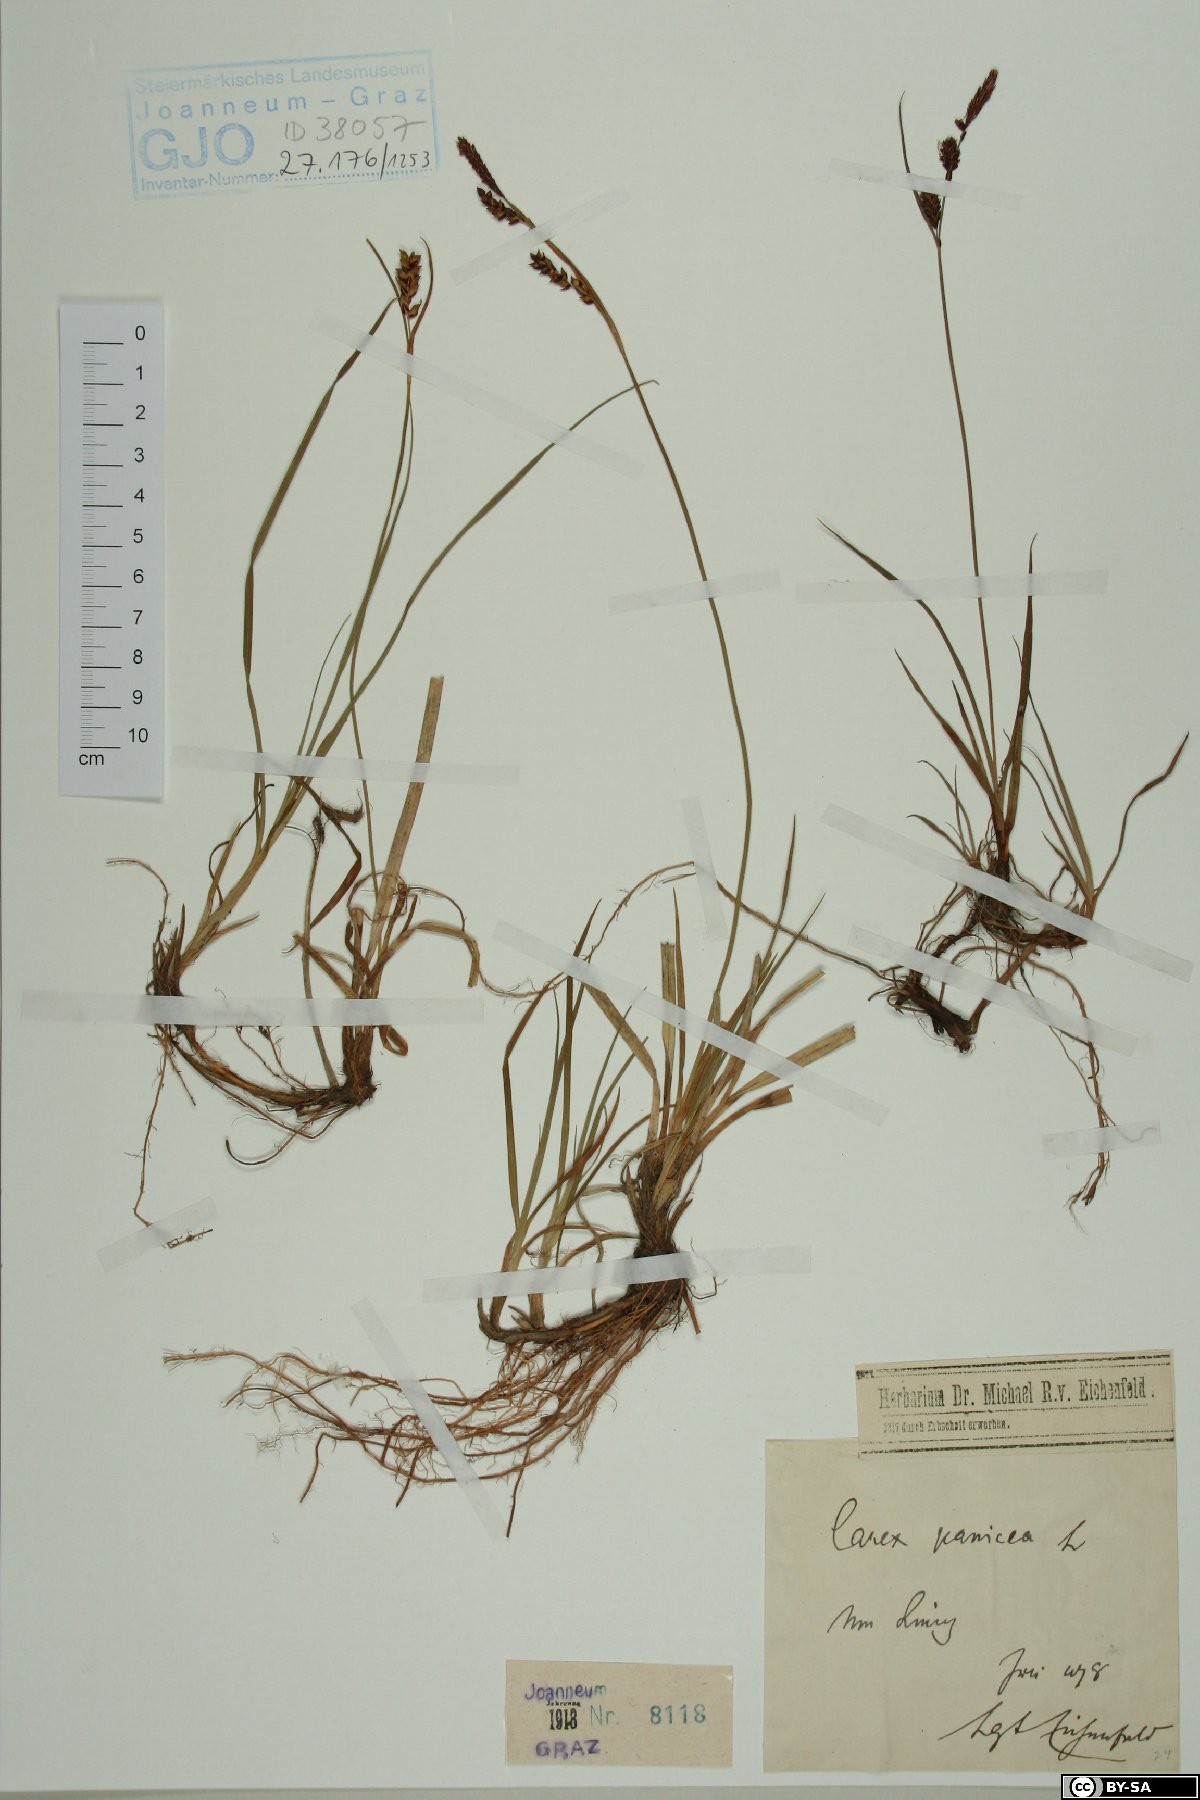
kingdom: Plantae
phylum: Tracheophyta
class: Liliopsida
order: Poales
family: Cyperaceae
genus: Carex
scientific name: Carex panicea
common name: Carnation sedge
